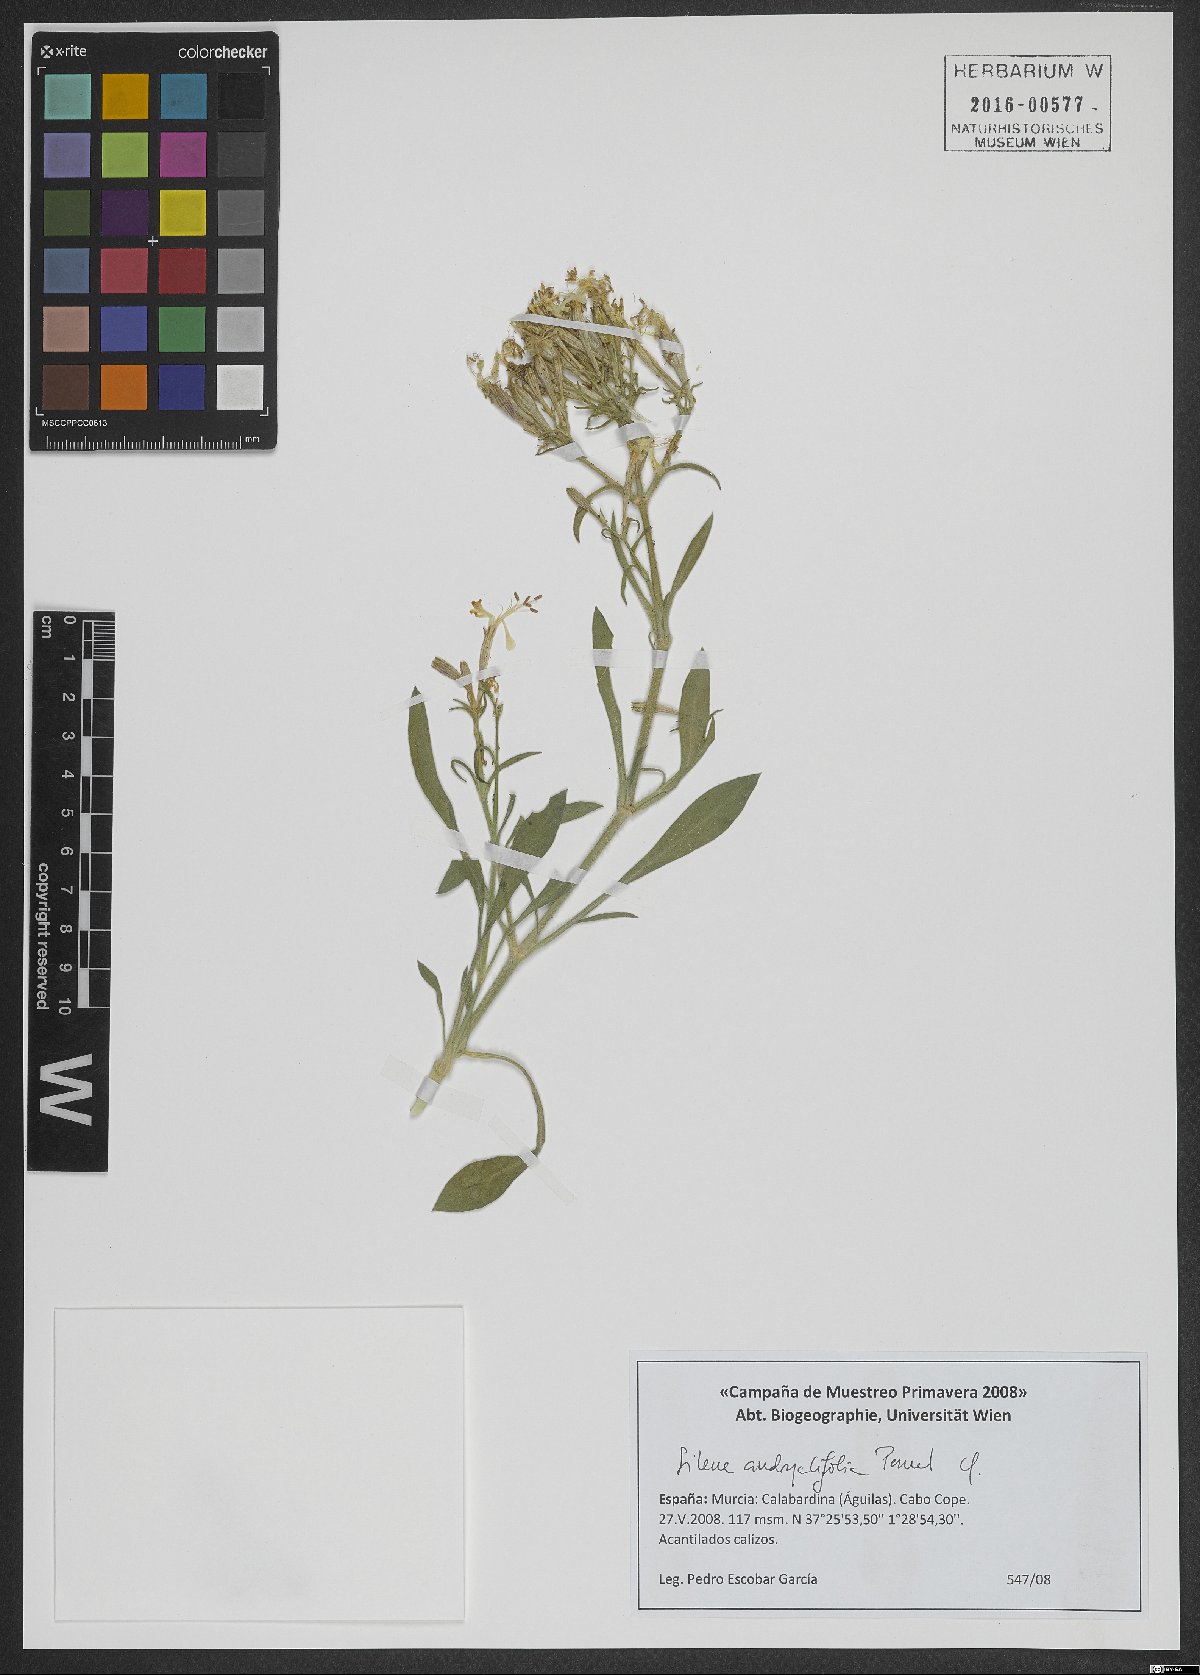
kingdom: Plantae
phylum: Tracheophyta
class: Magnoliopsida
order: Caryophyllales
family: Caryophyllaceae
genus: Silene
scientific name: Silene andryalifolia
